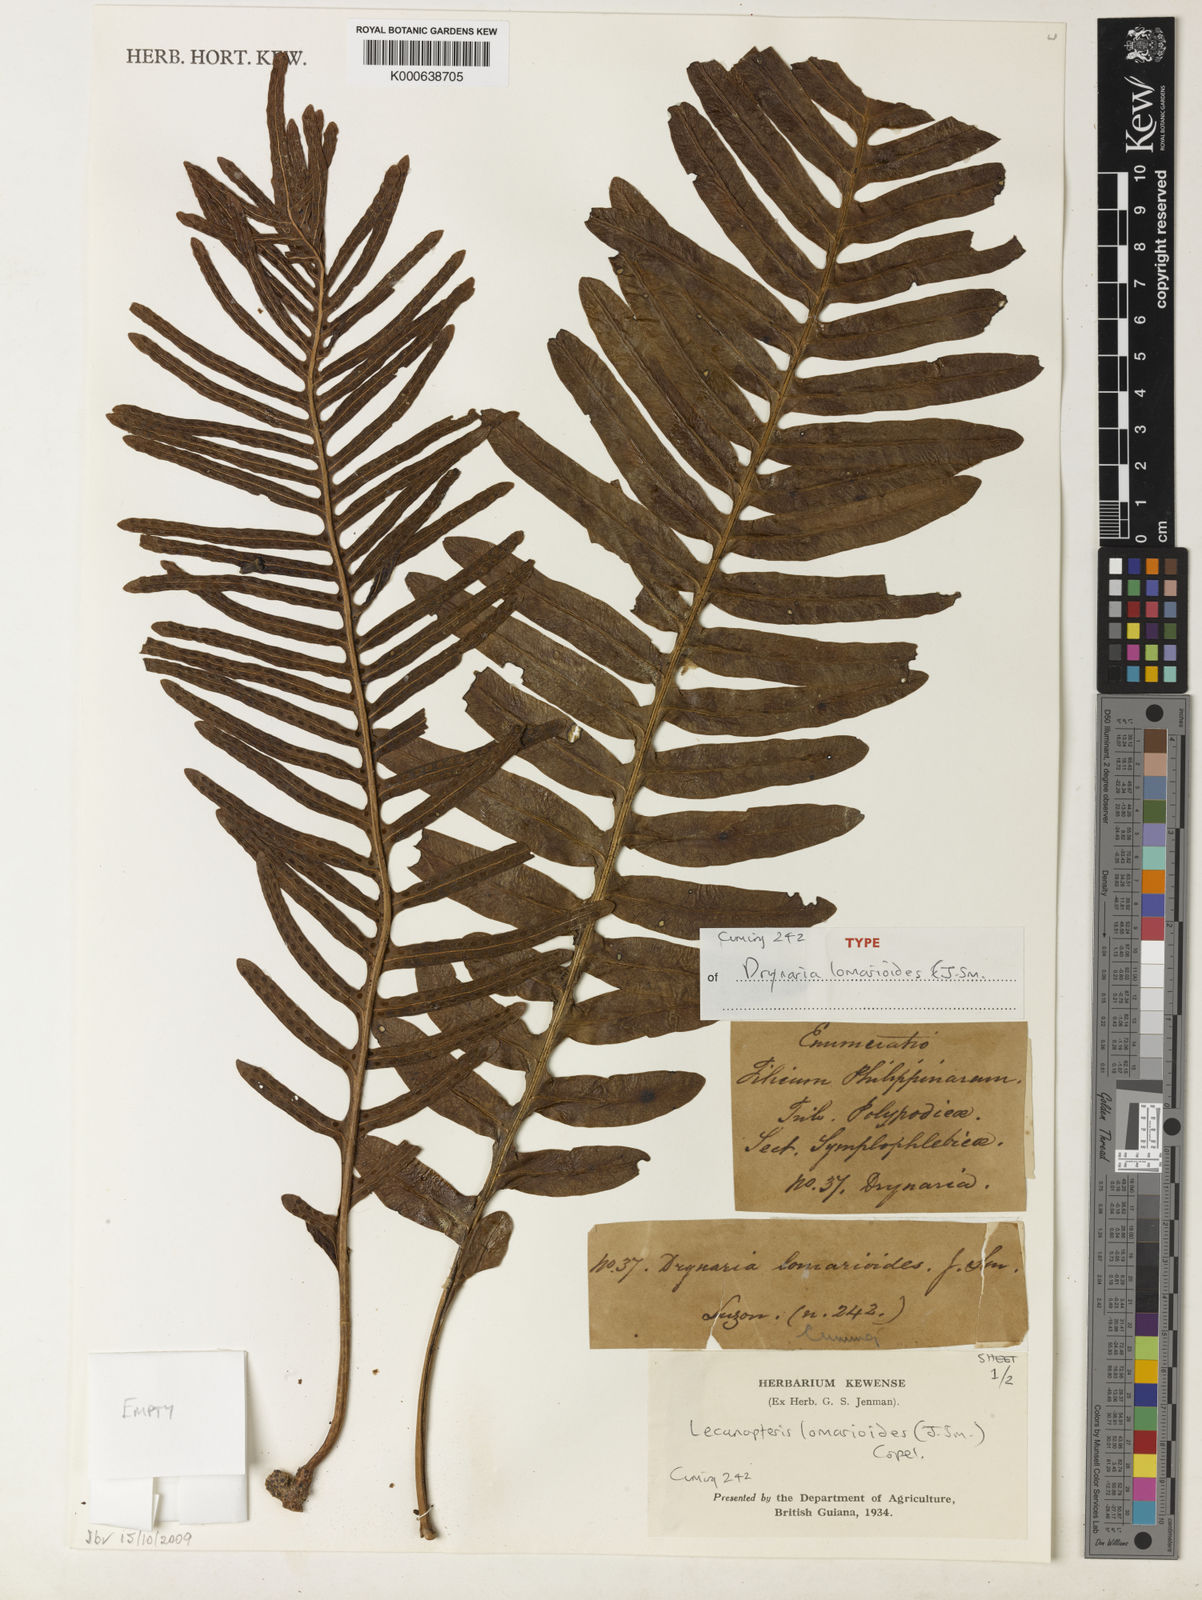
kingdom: Plantae
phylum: Tracheophyta
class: Polypodiopsida
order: Polypodiales
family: Polypodiaceae
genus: Lecanopteris
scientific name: Lecanopteris sarcopus
